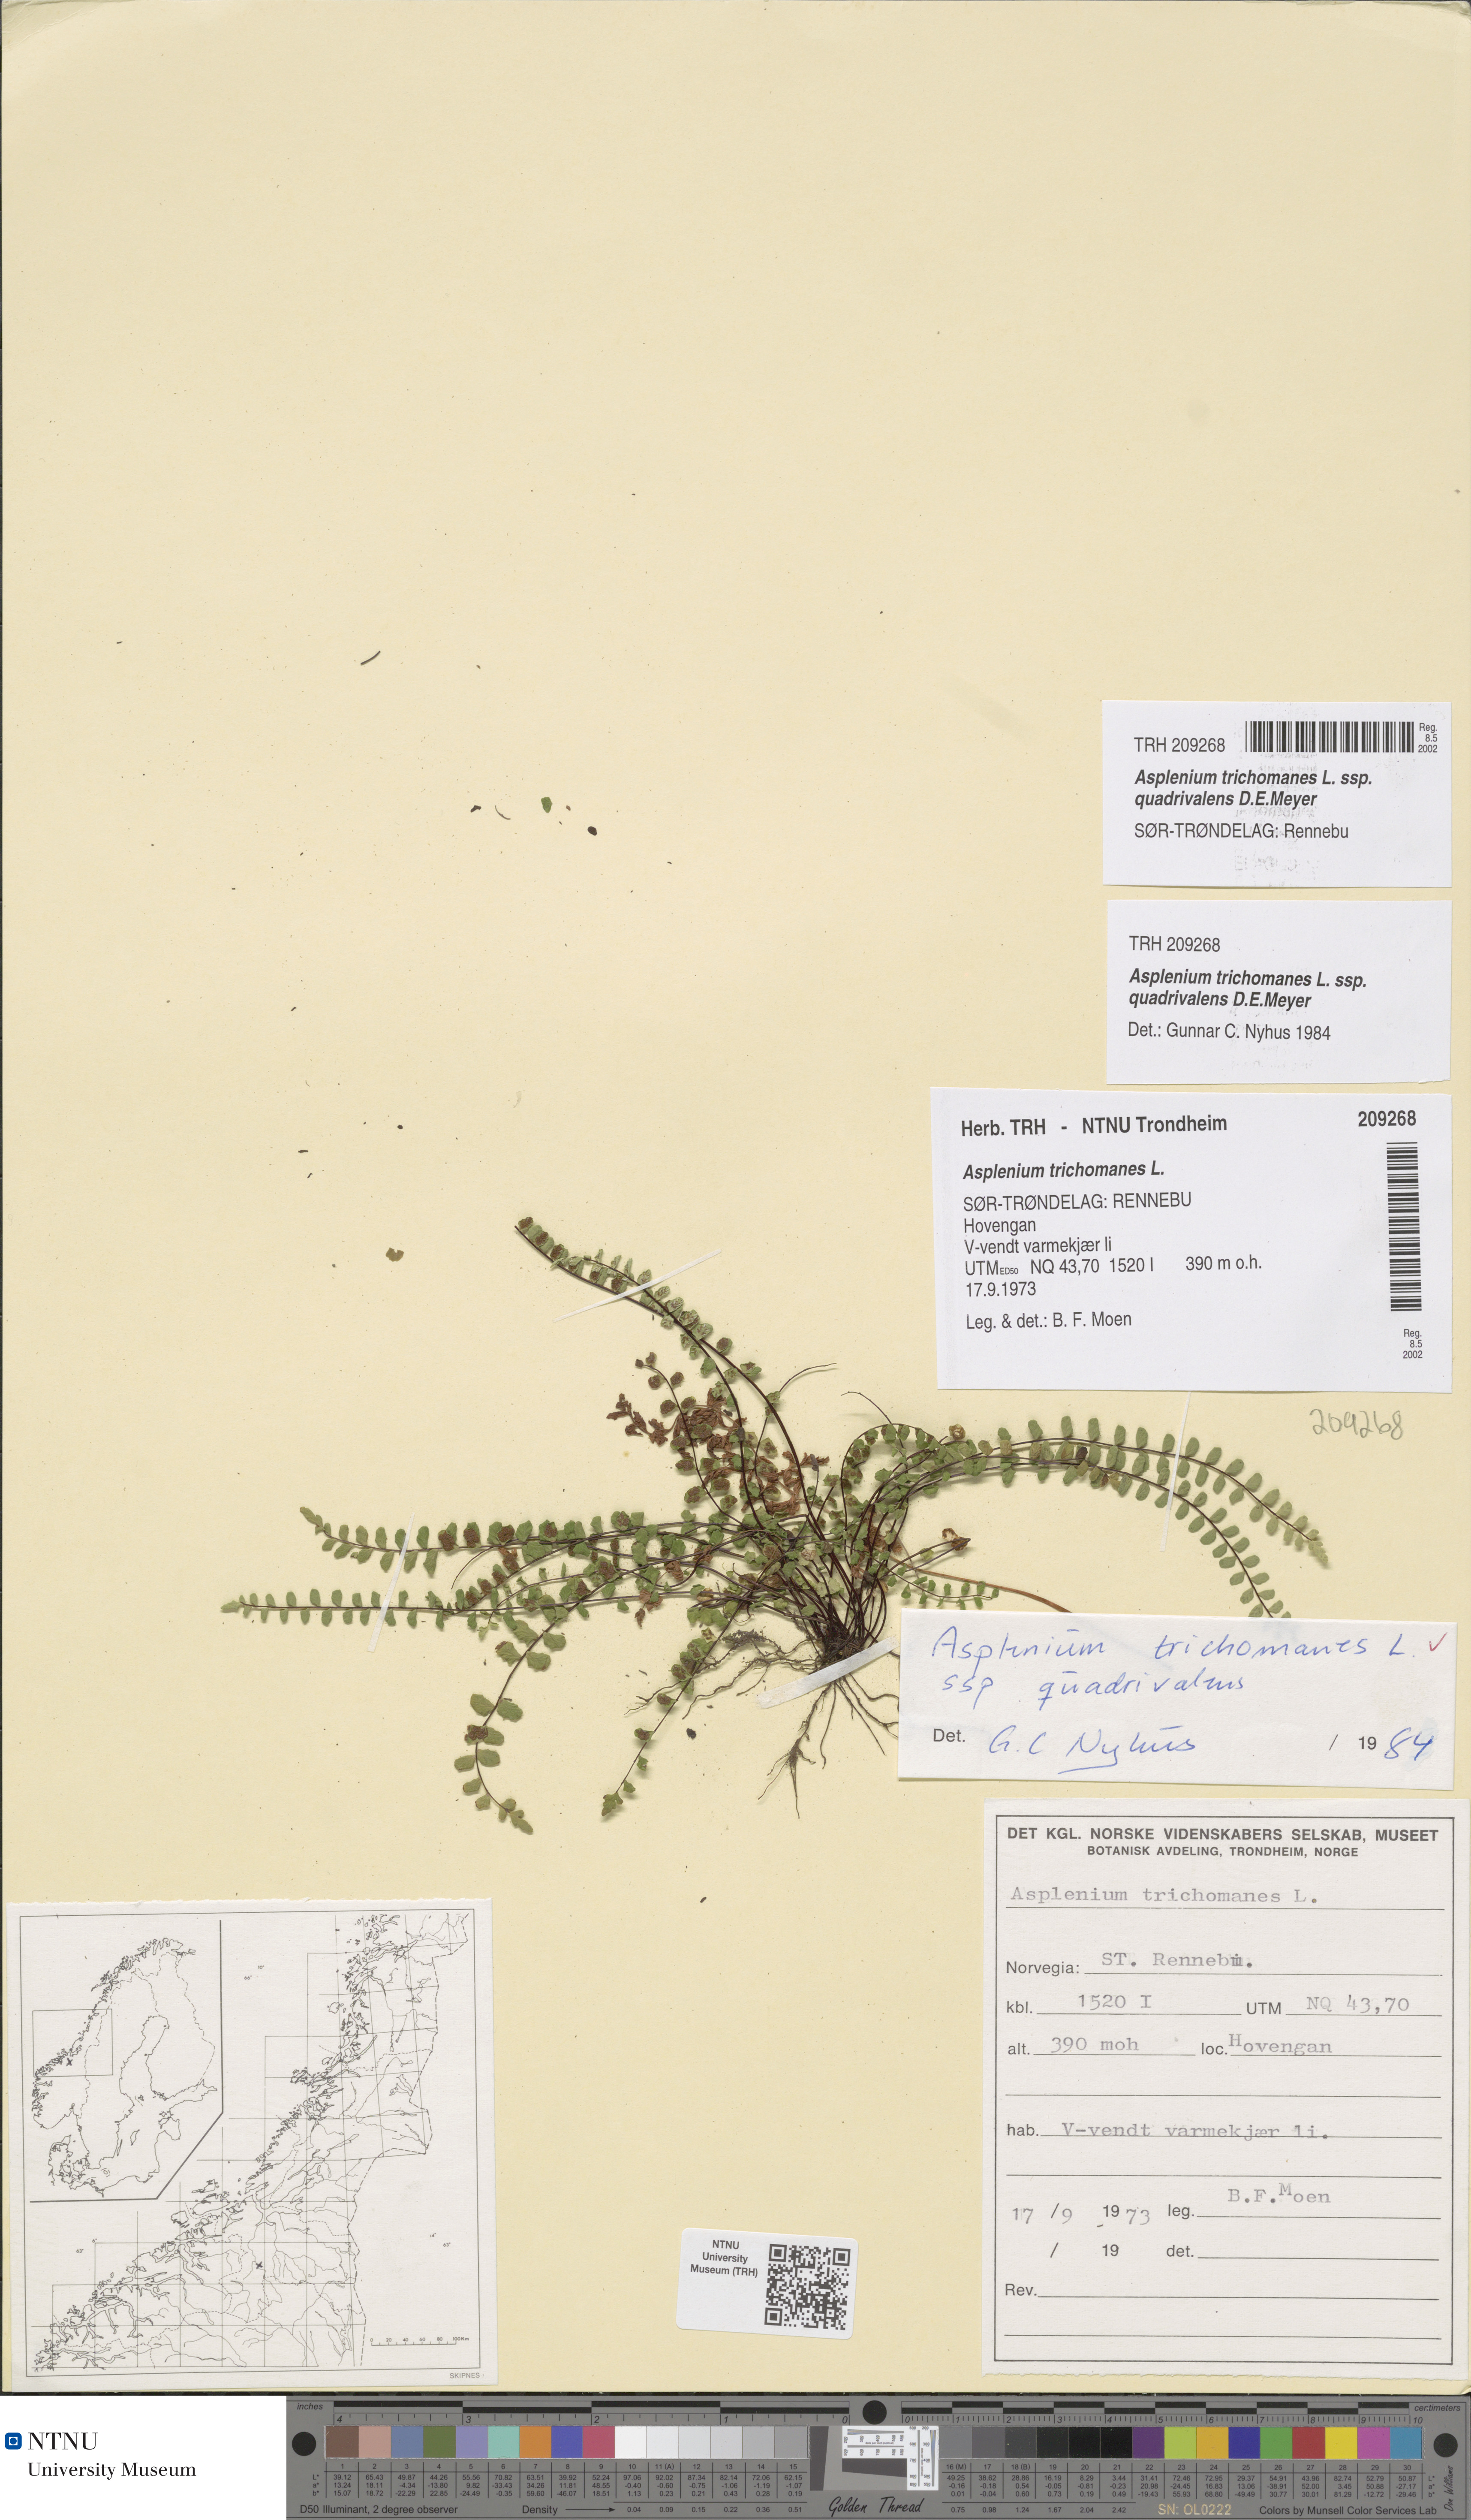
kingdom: Plantae
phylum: Tracheophyta
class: Polypodiopsida
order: Polypodiales
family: Aspleniaceae
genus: Asplenium
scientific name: Asplenium quadrivalens
